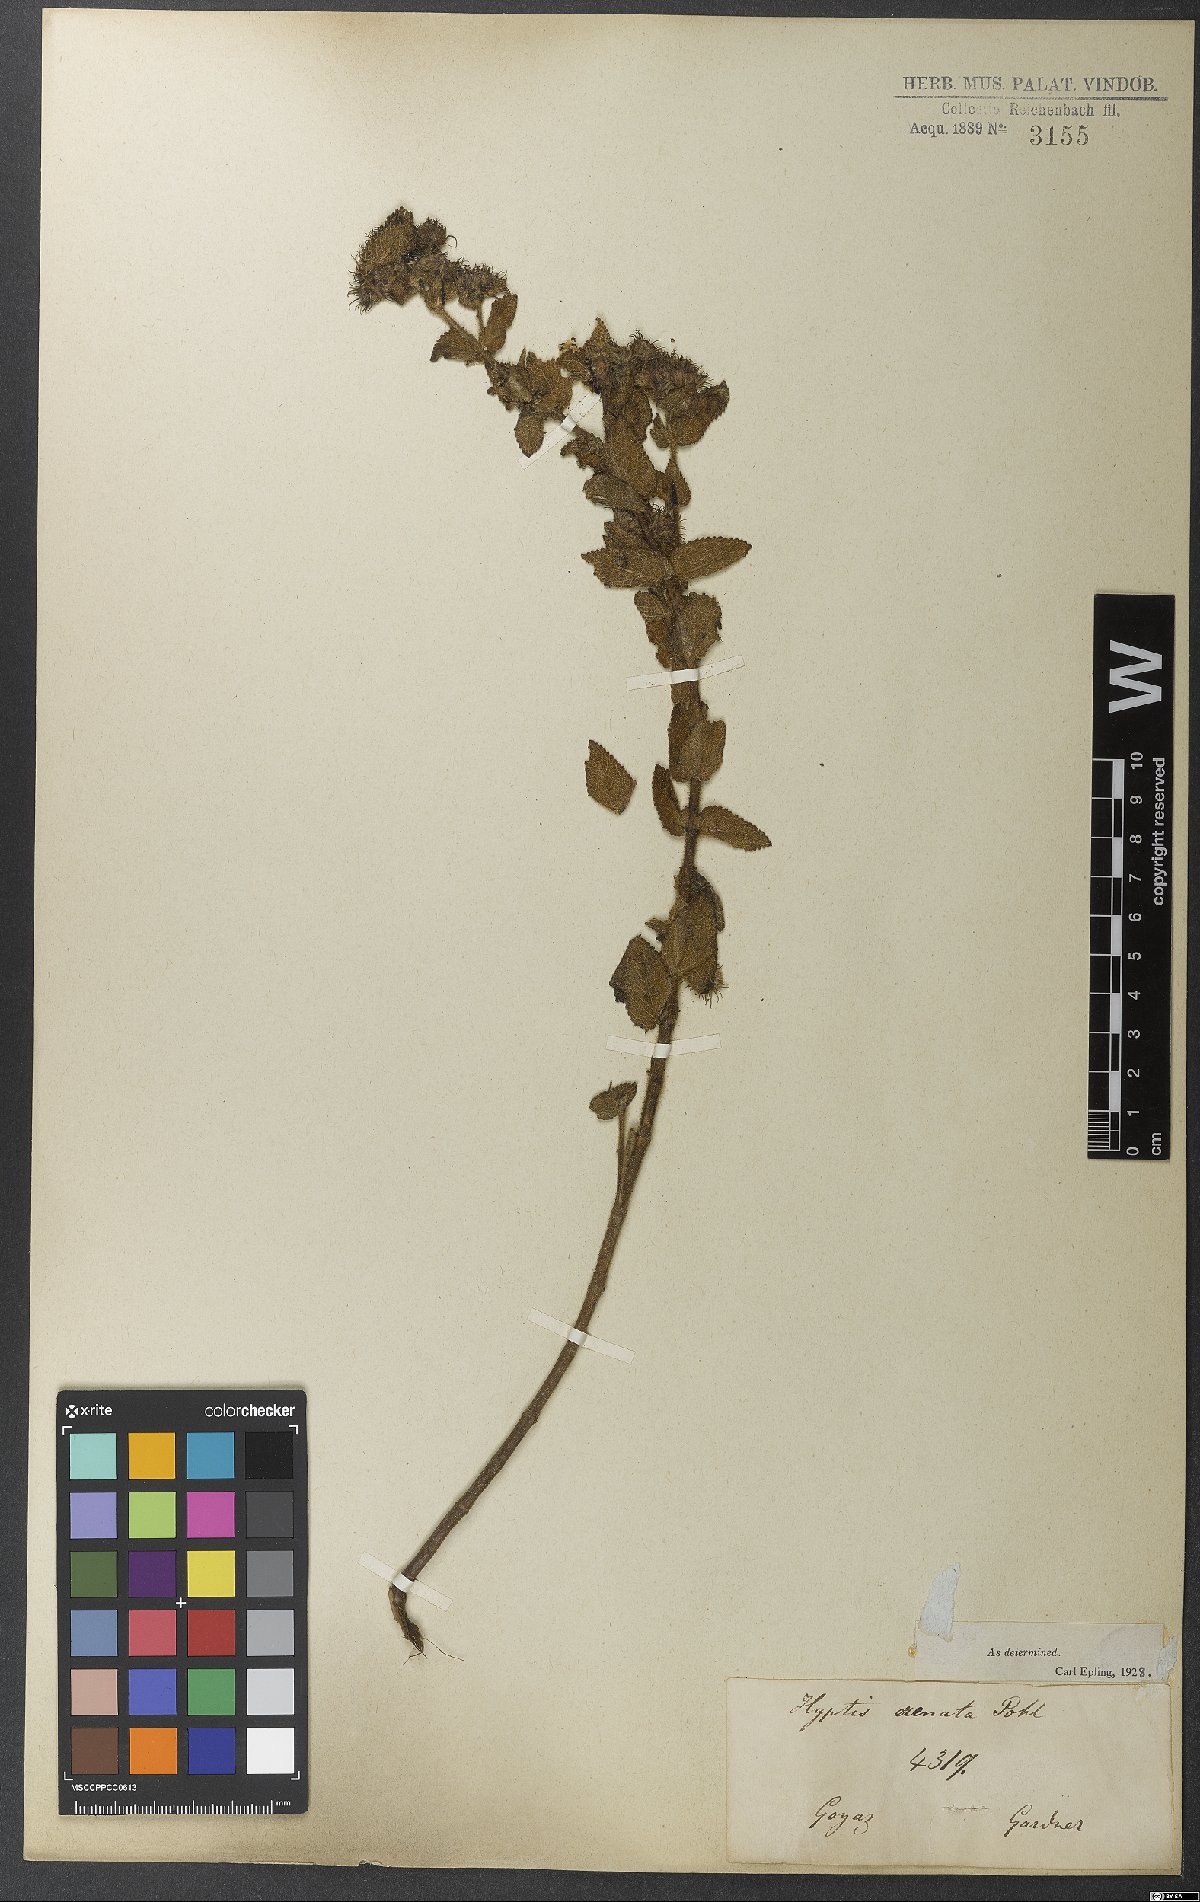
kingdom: Plantae
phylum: Tracheophyta
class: Magnoliopsida
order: Lamiales
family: Lamiaceae
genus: Hyptis
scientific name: Hyptis crenata
